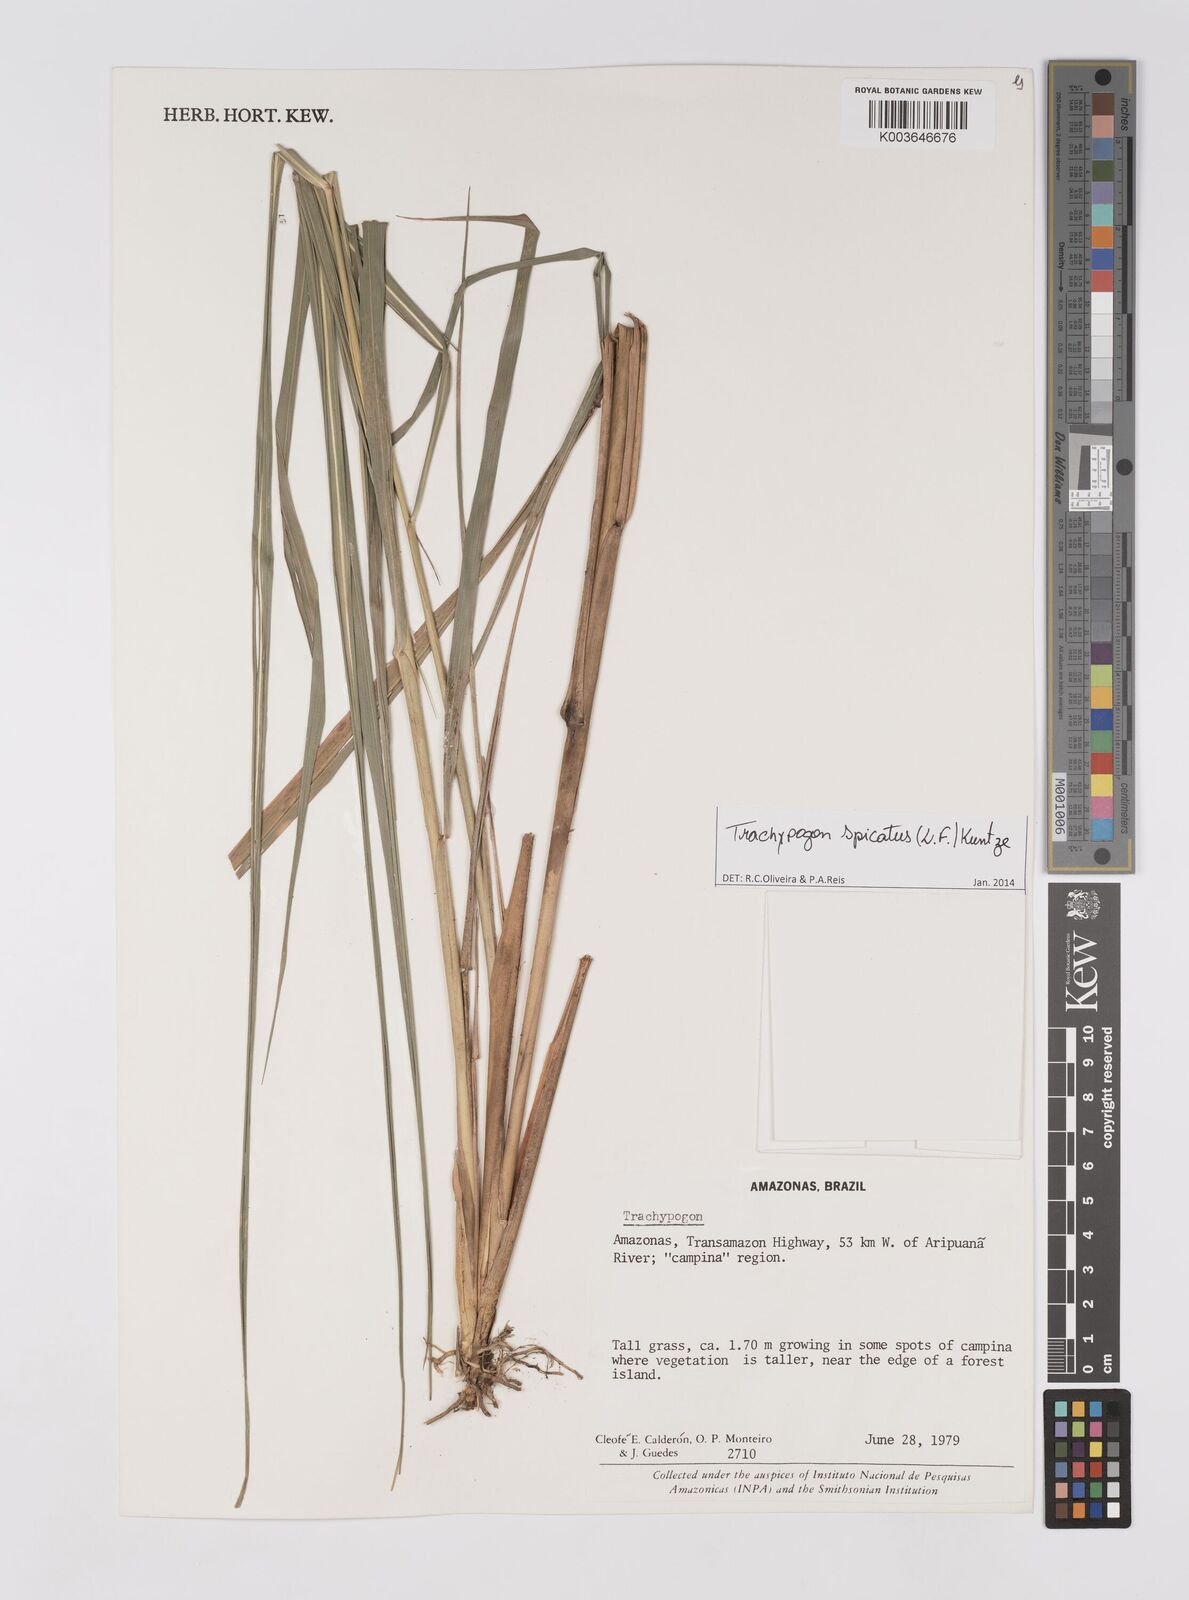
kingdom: Plantae
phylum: Tracheophyta
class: Liliopsida
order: Poales
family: Poaceae
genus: Trachypogon
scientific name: Trachypogon spicatus
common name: Crinkle-awn
